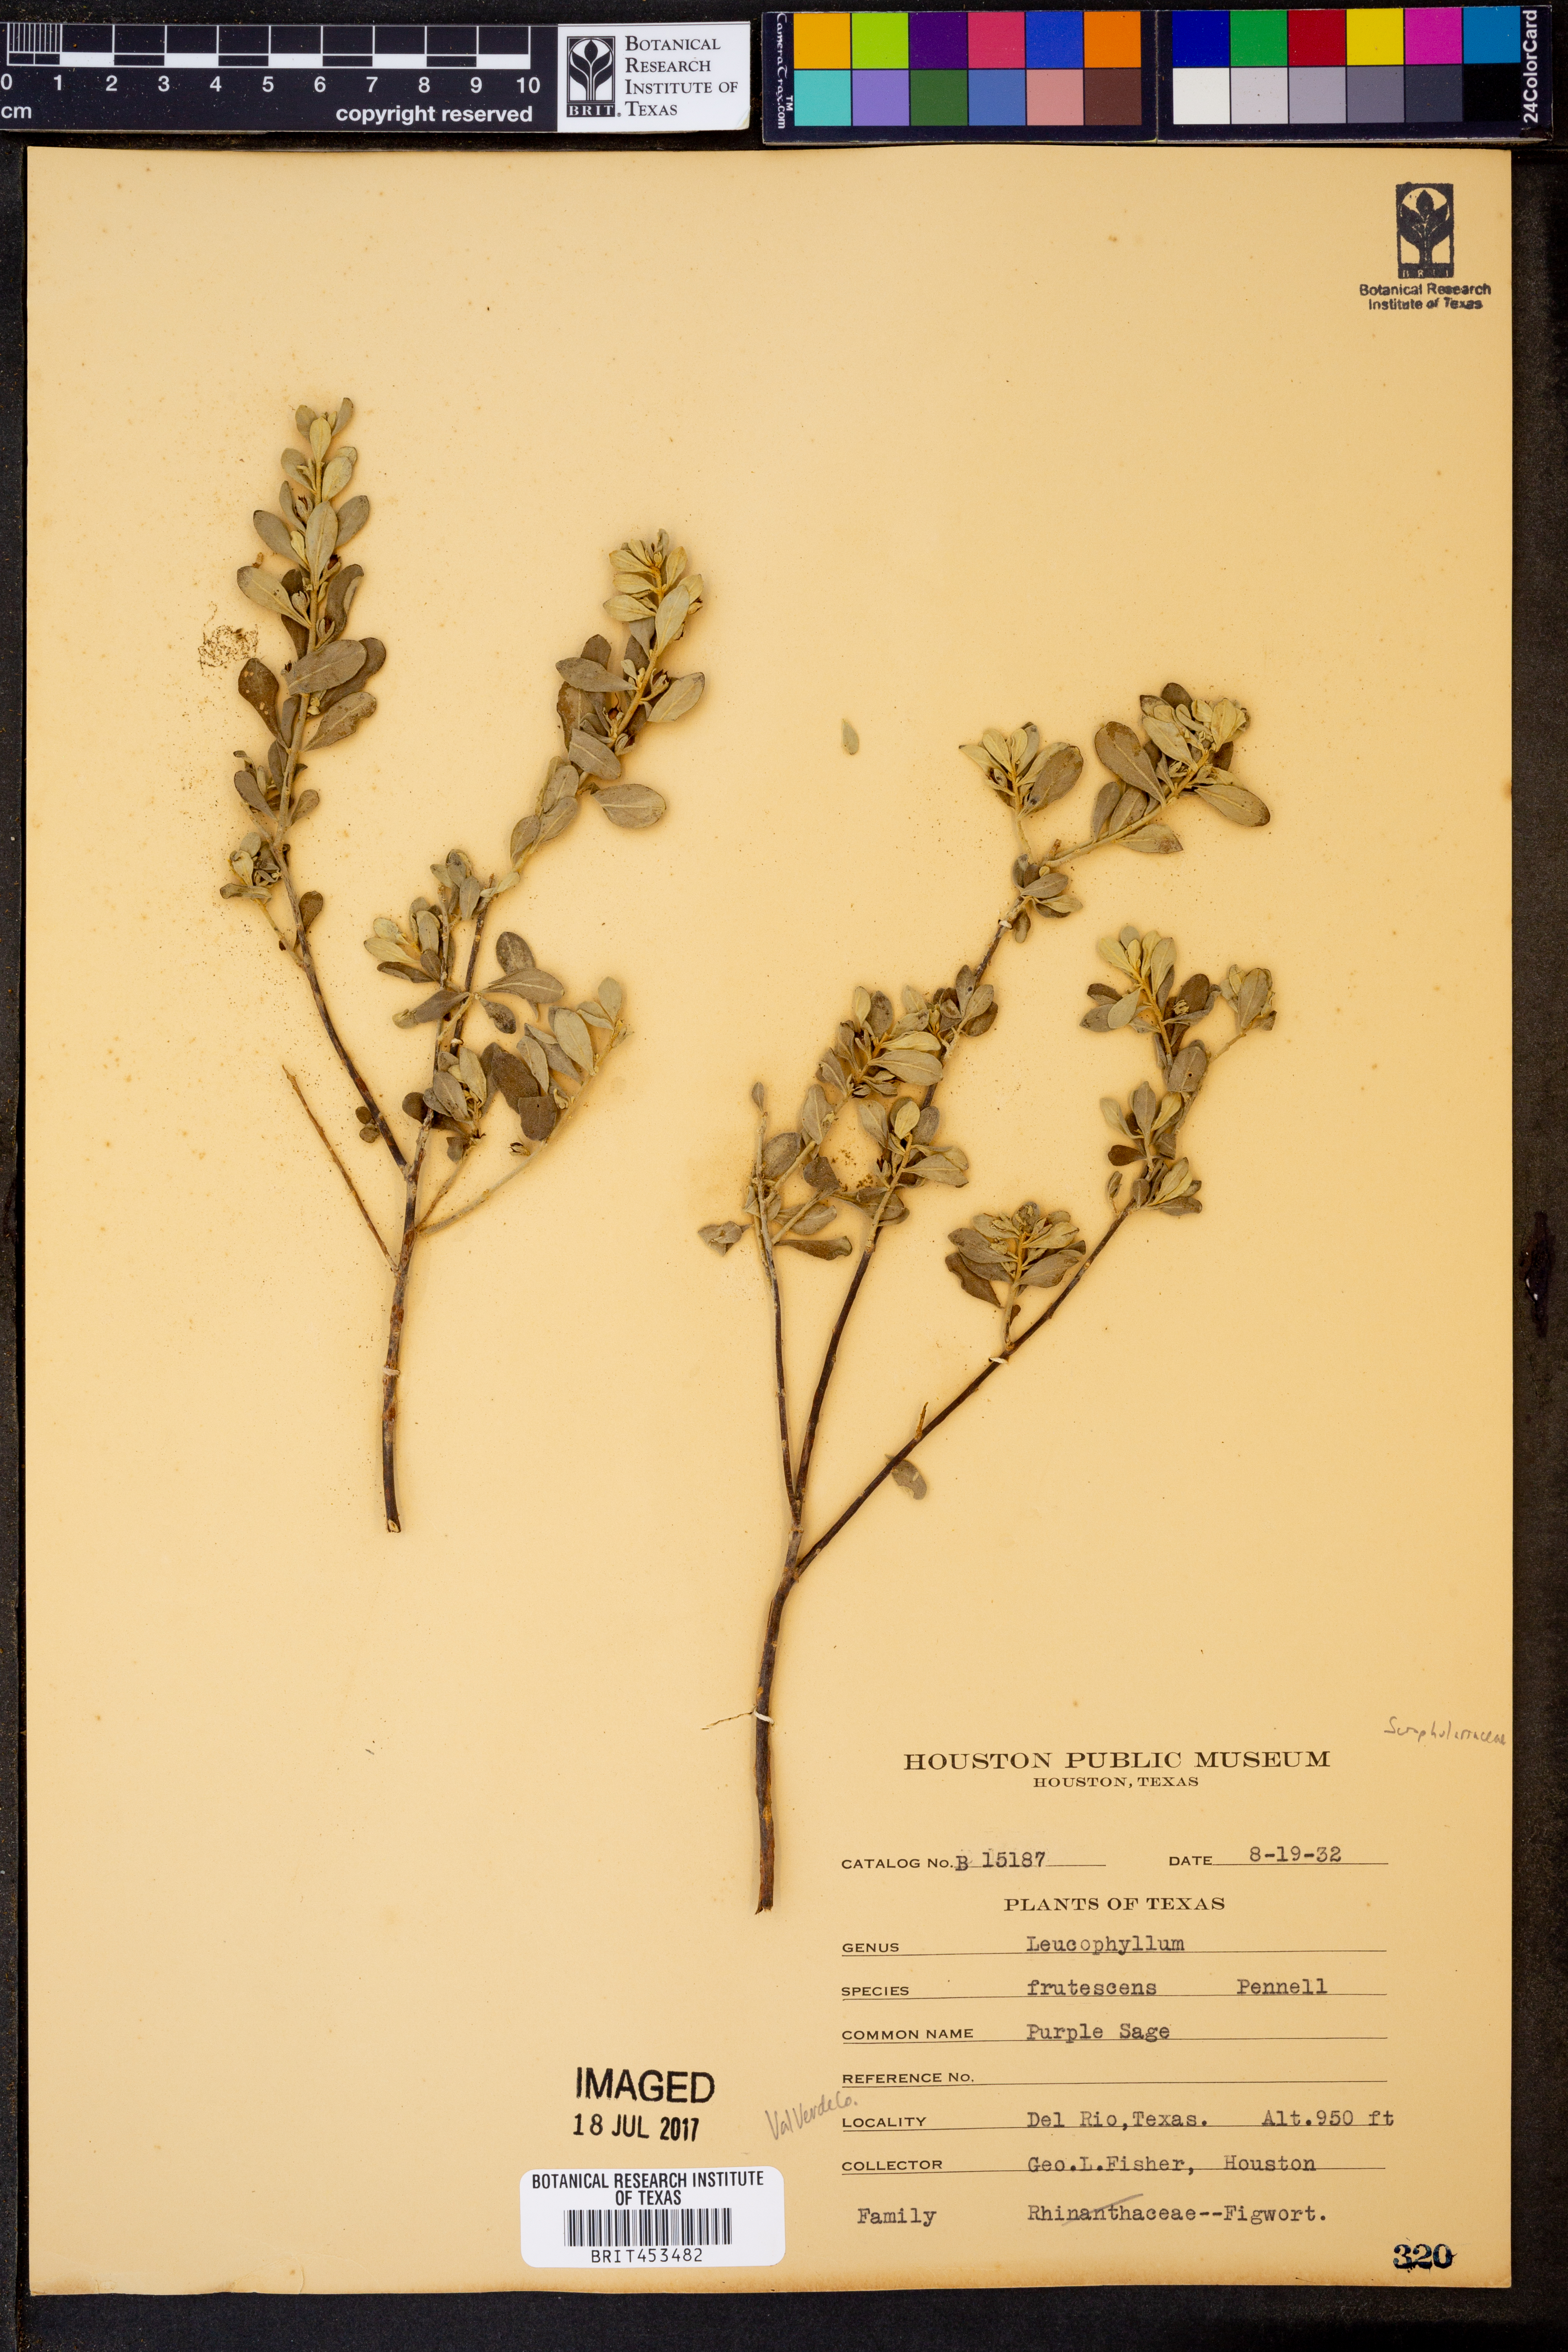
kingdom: Plantae
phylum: Tracheophyta
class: Magnoliopsida
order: Lamiales
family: Scrophulariaceae
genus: Leucophyllum
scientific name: Leucophyllum frutescens
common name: Texas silverleaf
